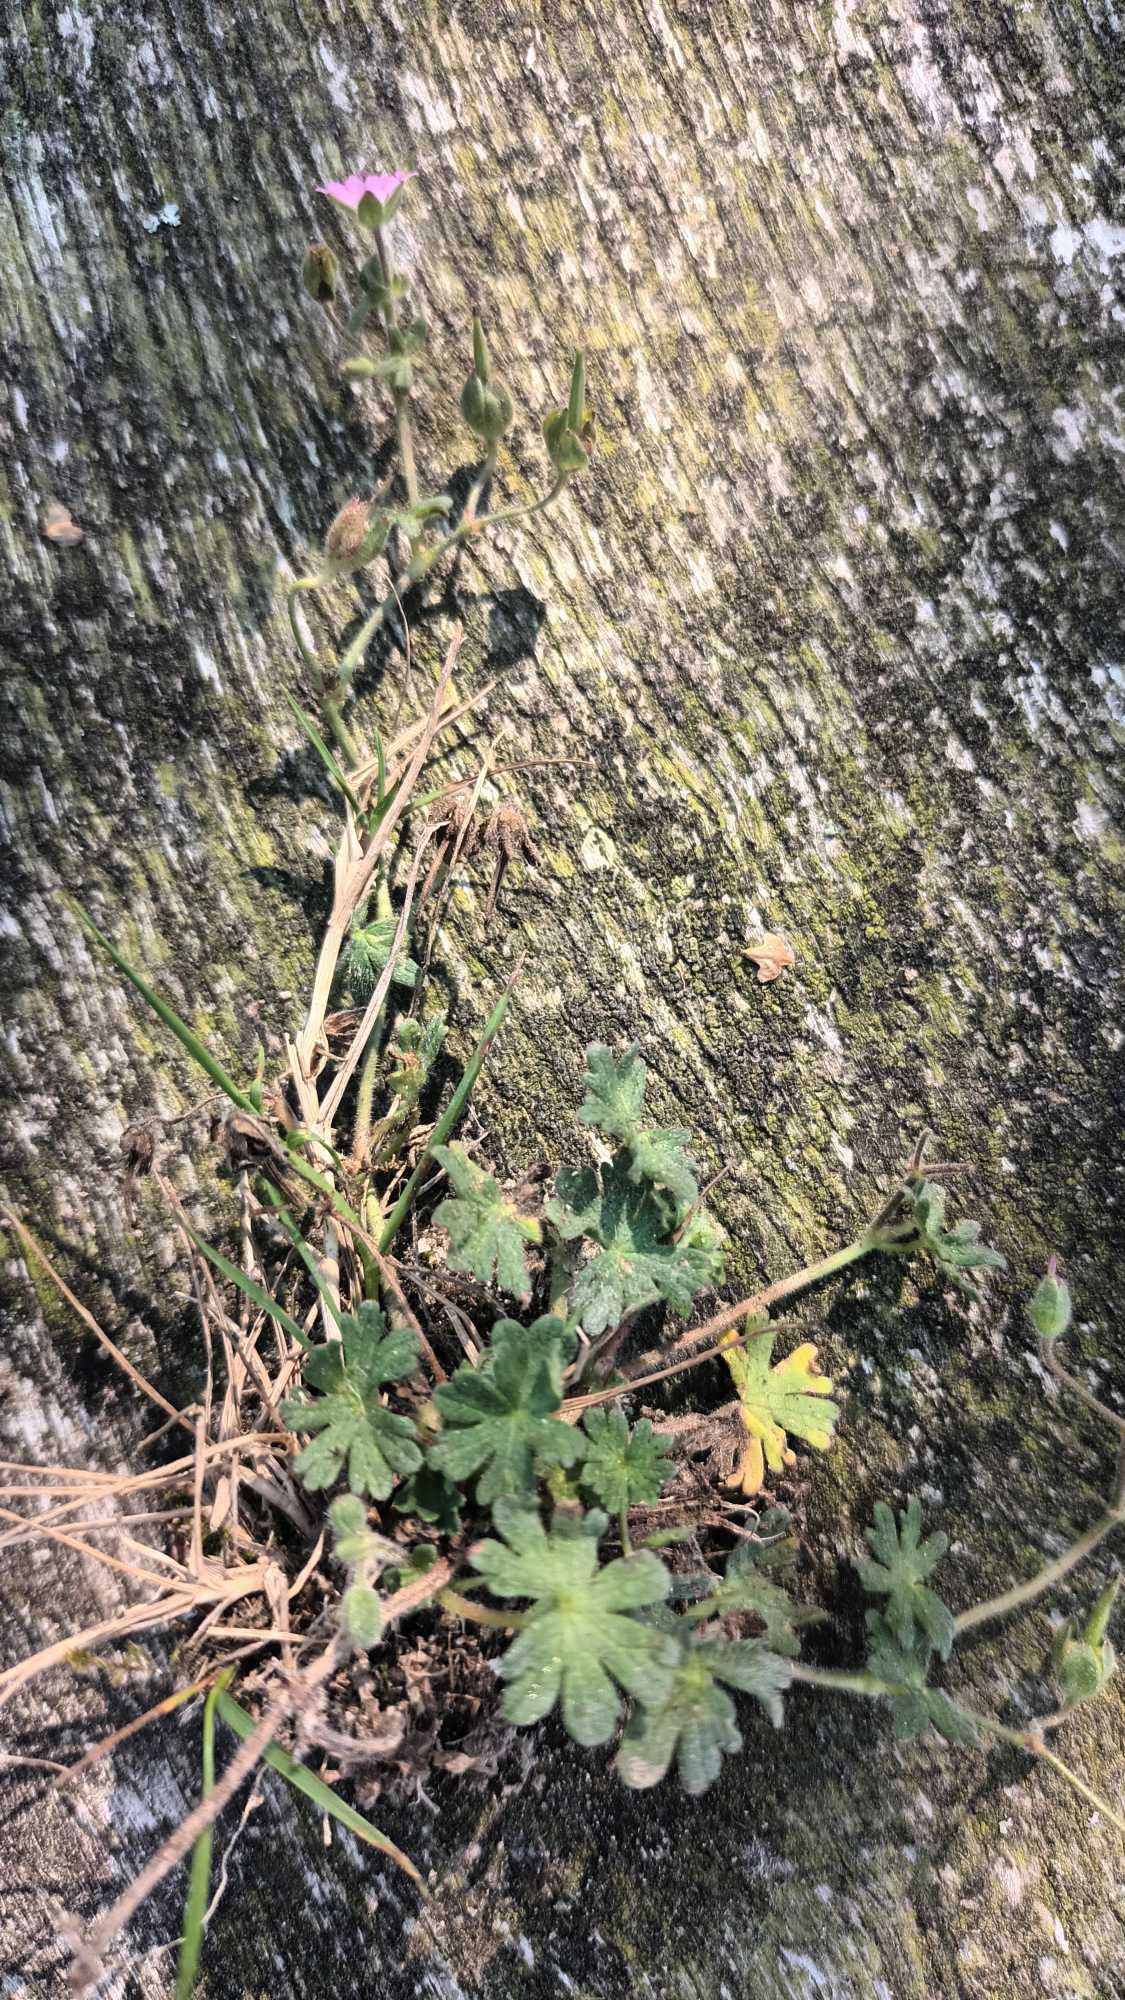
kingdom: Plantae
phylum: Tracheophyta
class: Magnoliopsida
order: Geraniales
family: Geraniaceae
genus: Geranium
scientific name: Geranium molle
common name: Blød storkenæb
